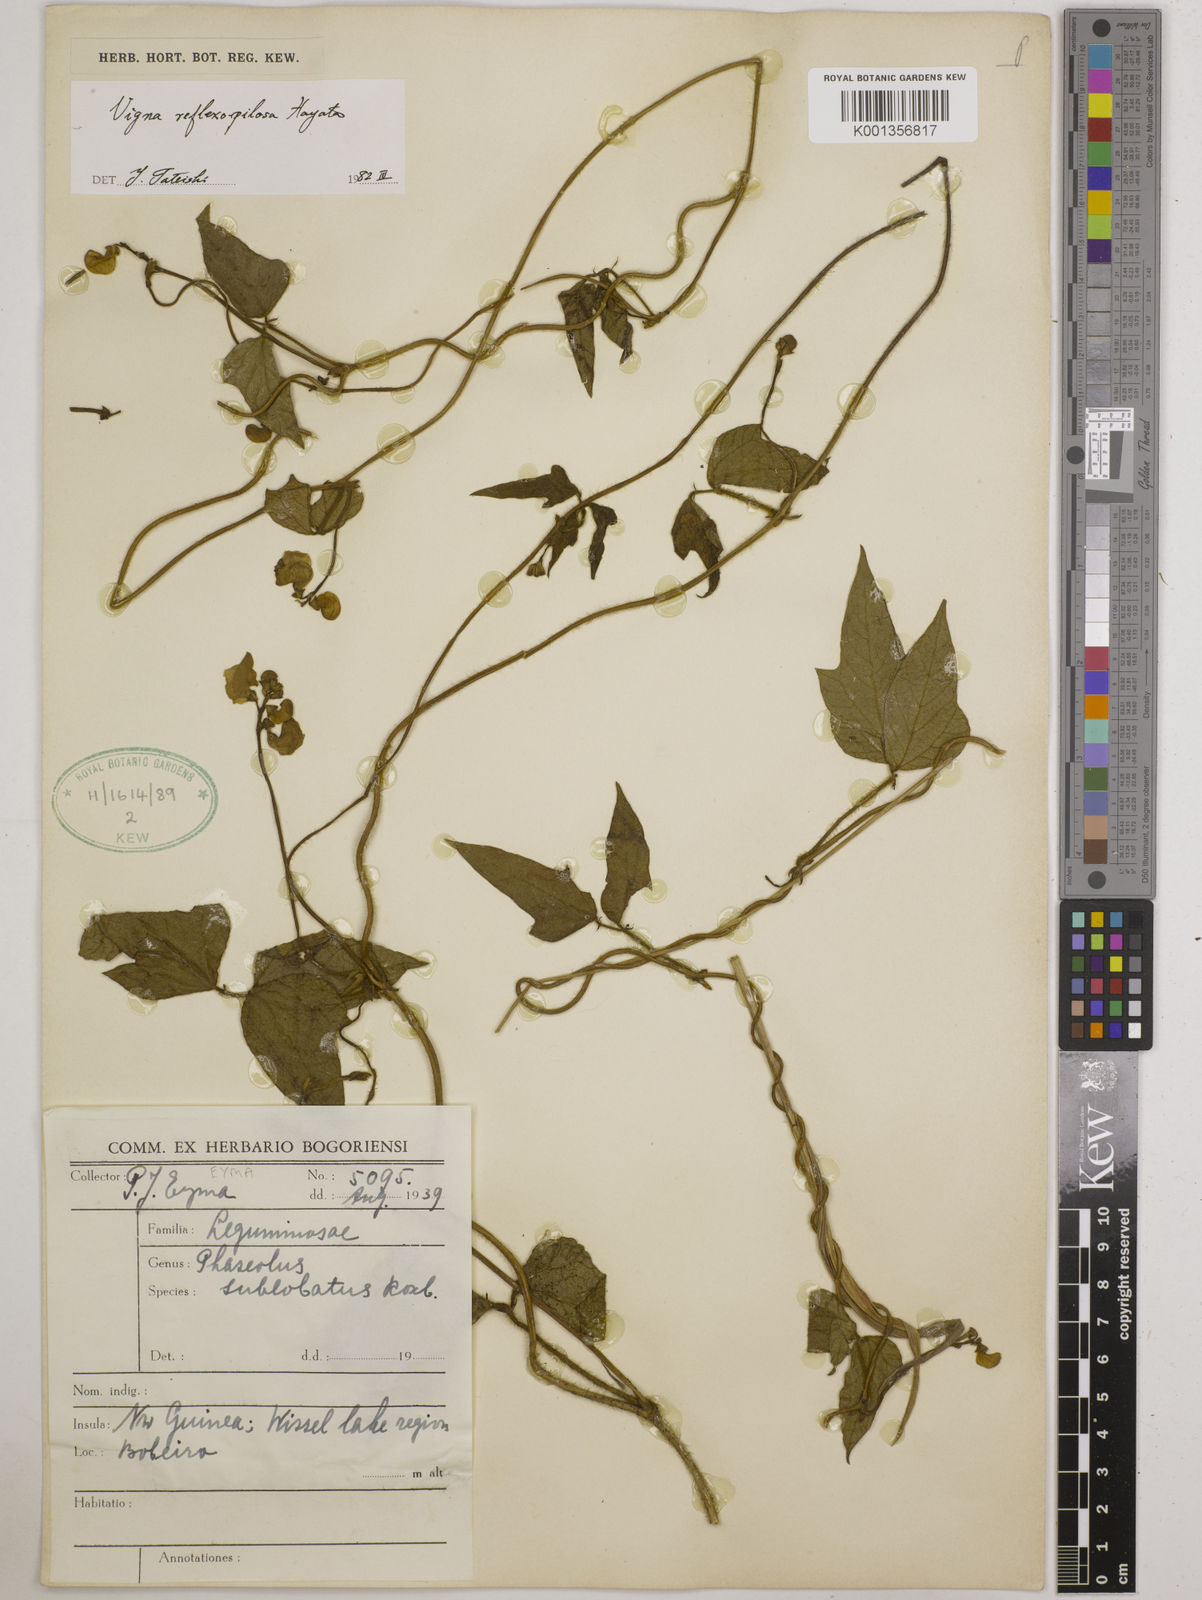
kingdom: Plantae
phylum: Tracheophyta
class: Magnoliopsida
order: Fabales
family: Fabaceae
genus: Vigna
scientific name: Vigna reflexopilosa
